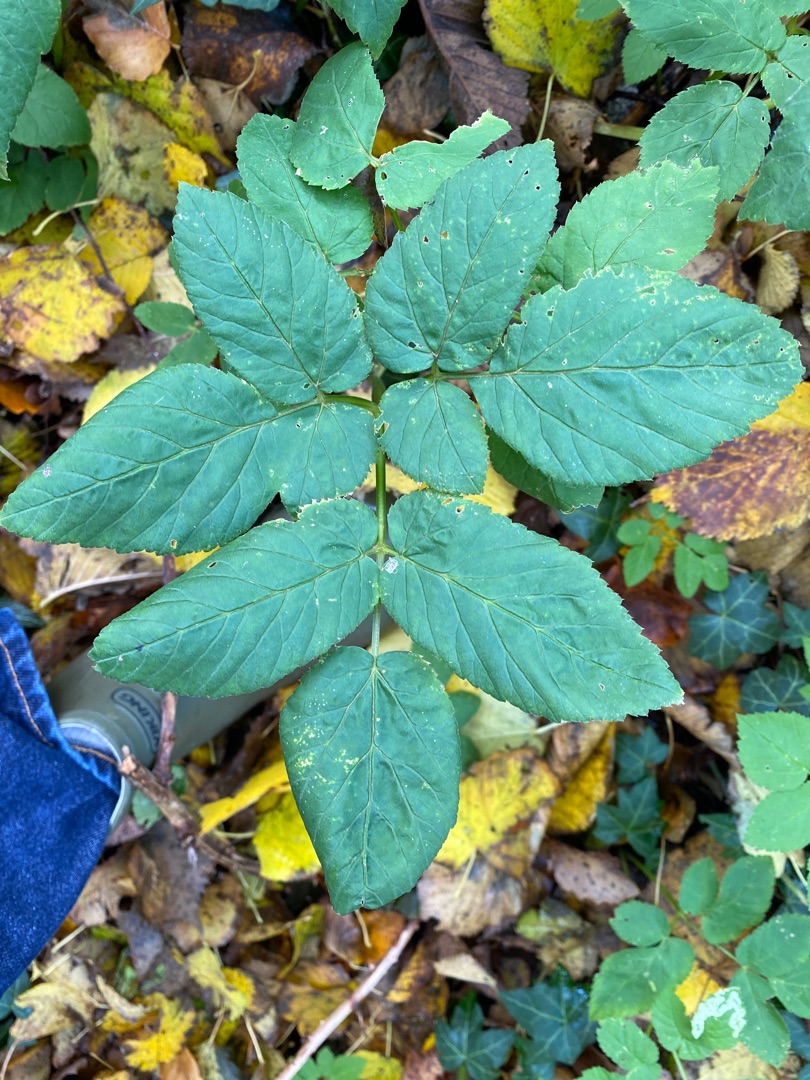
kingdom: Plantae
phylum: Tracheophyta
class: Magnoliopsida
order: Apiales
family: Apiaceae
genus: Aegopodium
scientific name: Aegopodium podagraria
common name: Skvalderkål
